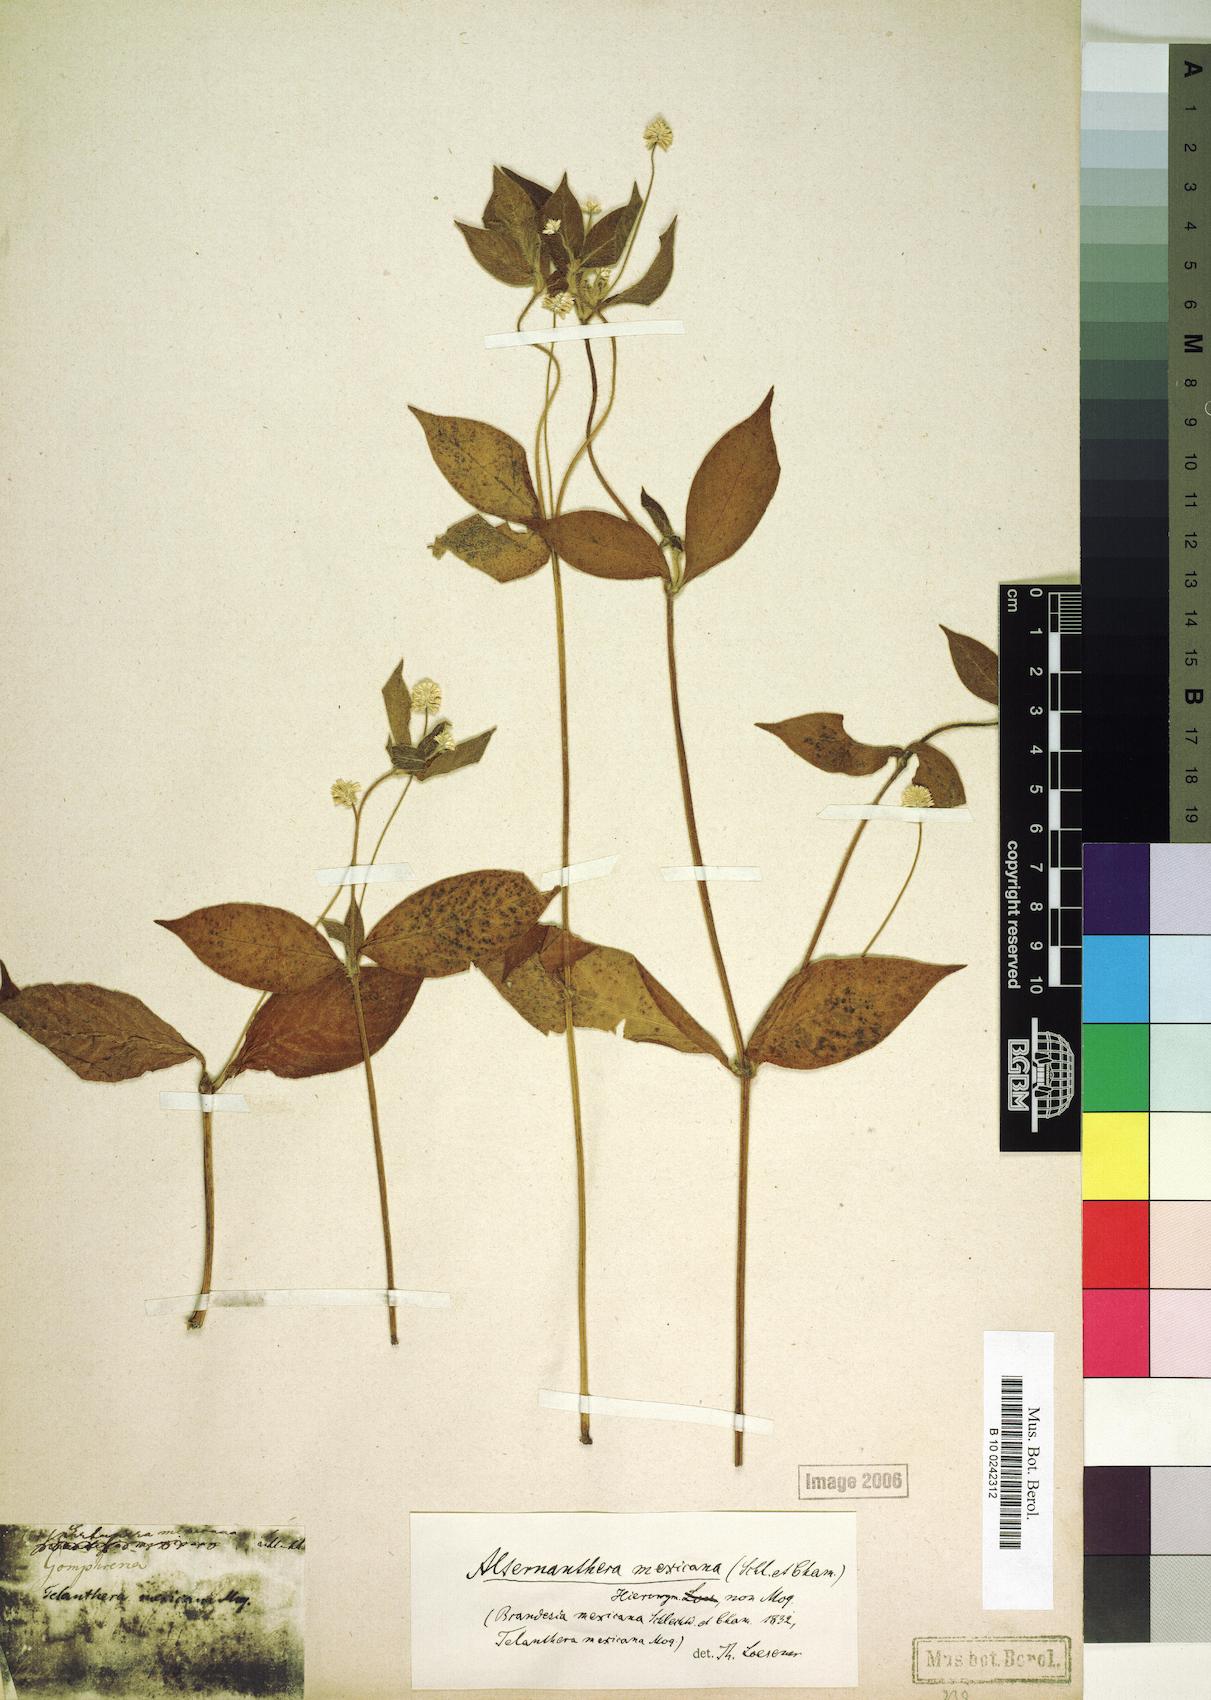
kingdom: Plantae
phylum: Tracheophyta
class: Magnoliopsida
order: Caryophyllales
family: Amaranthaceae
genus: Alternanthera
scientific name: Alternanthera lanceolata
